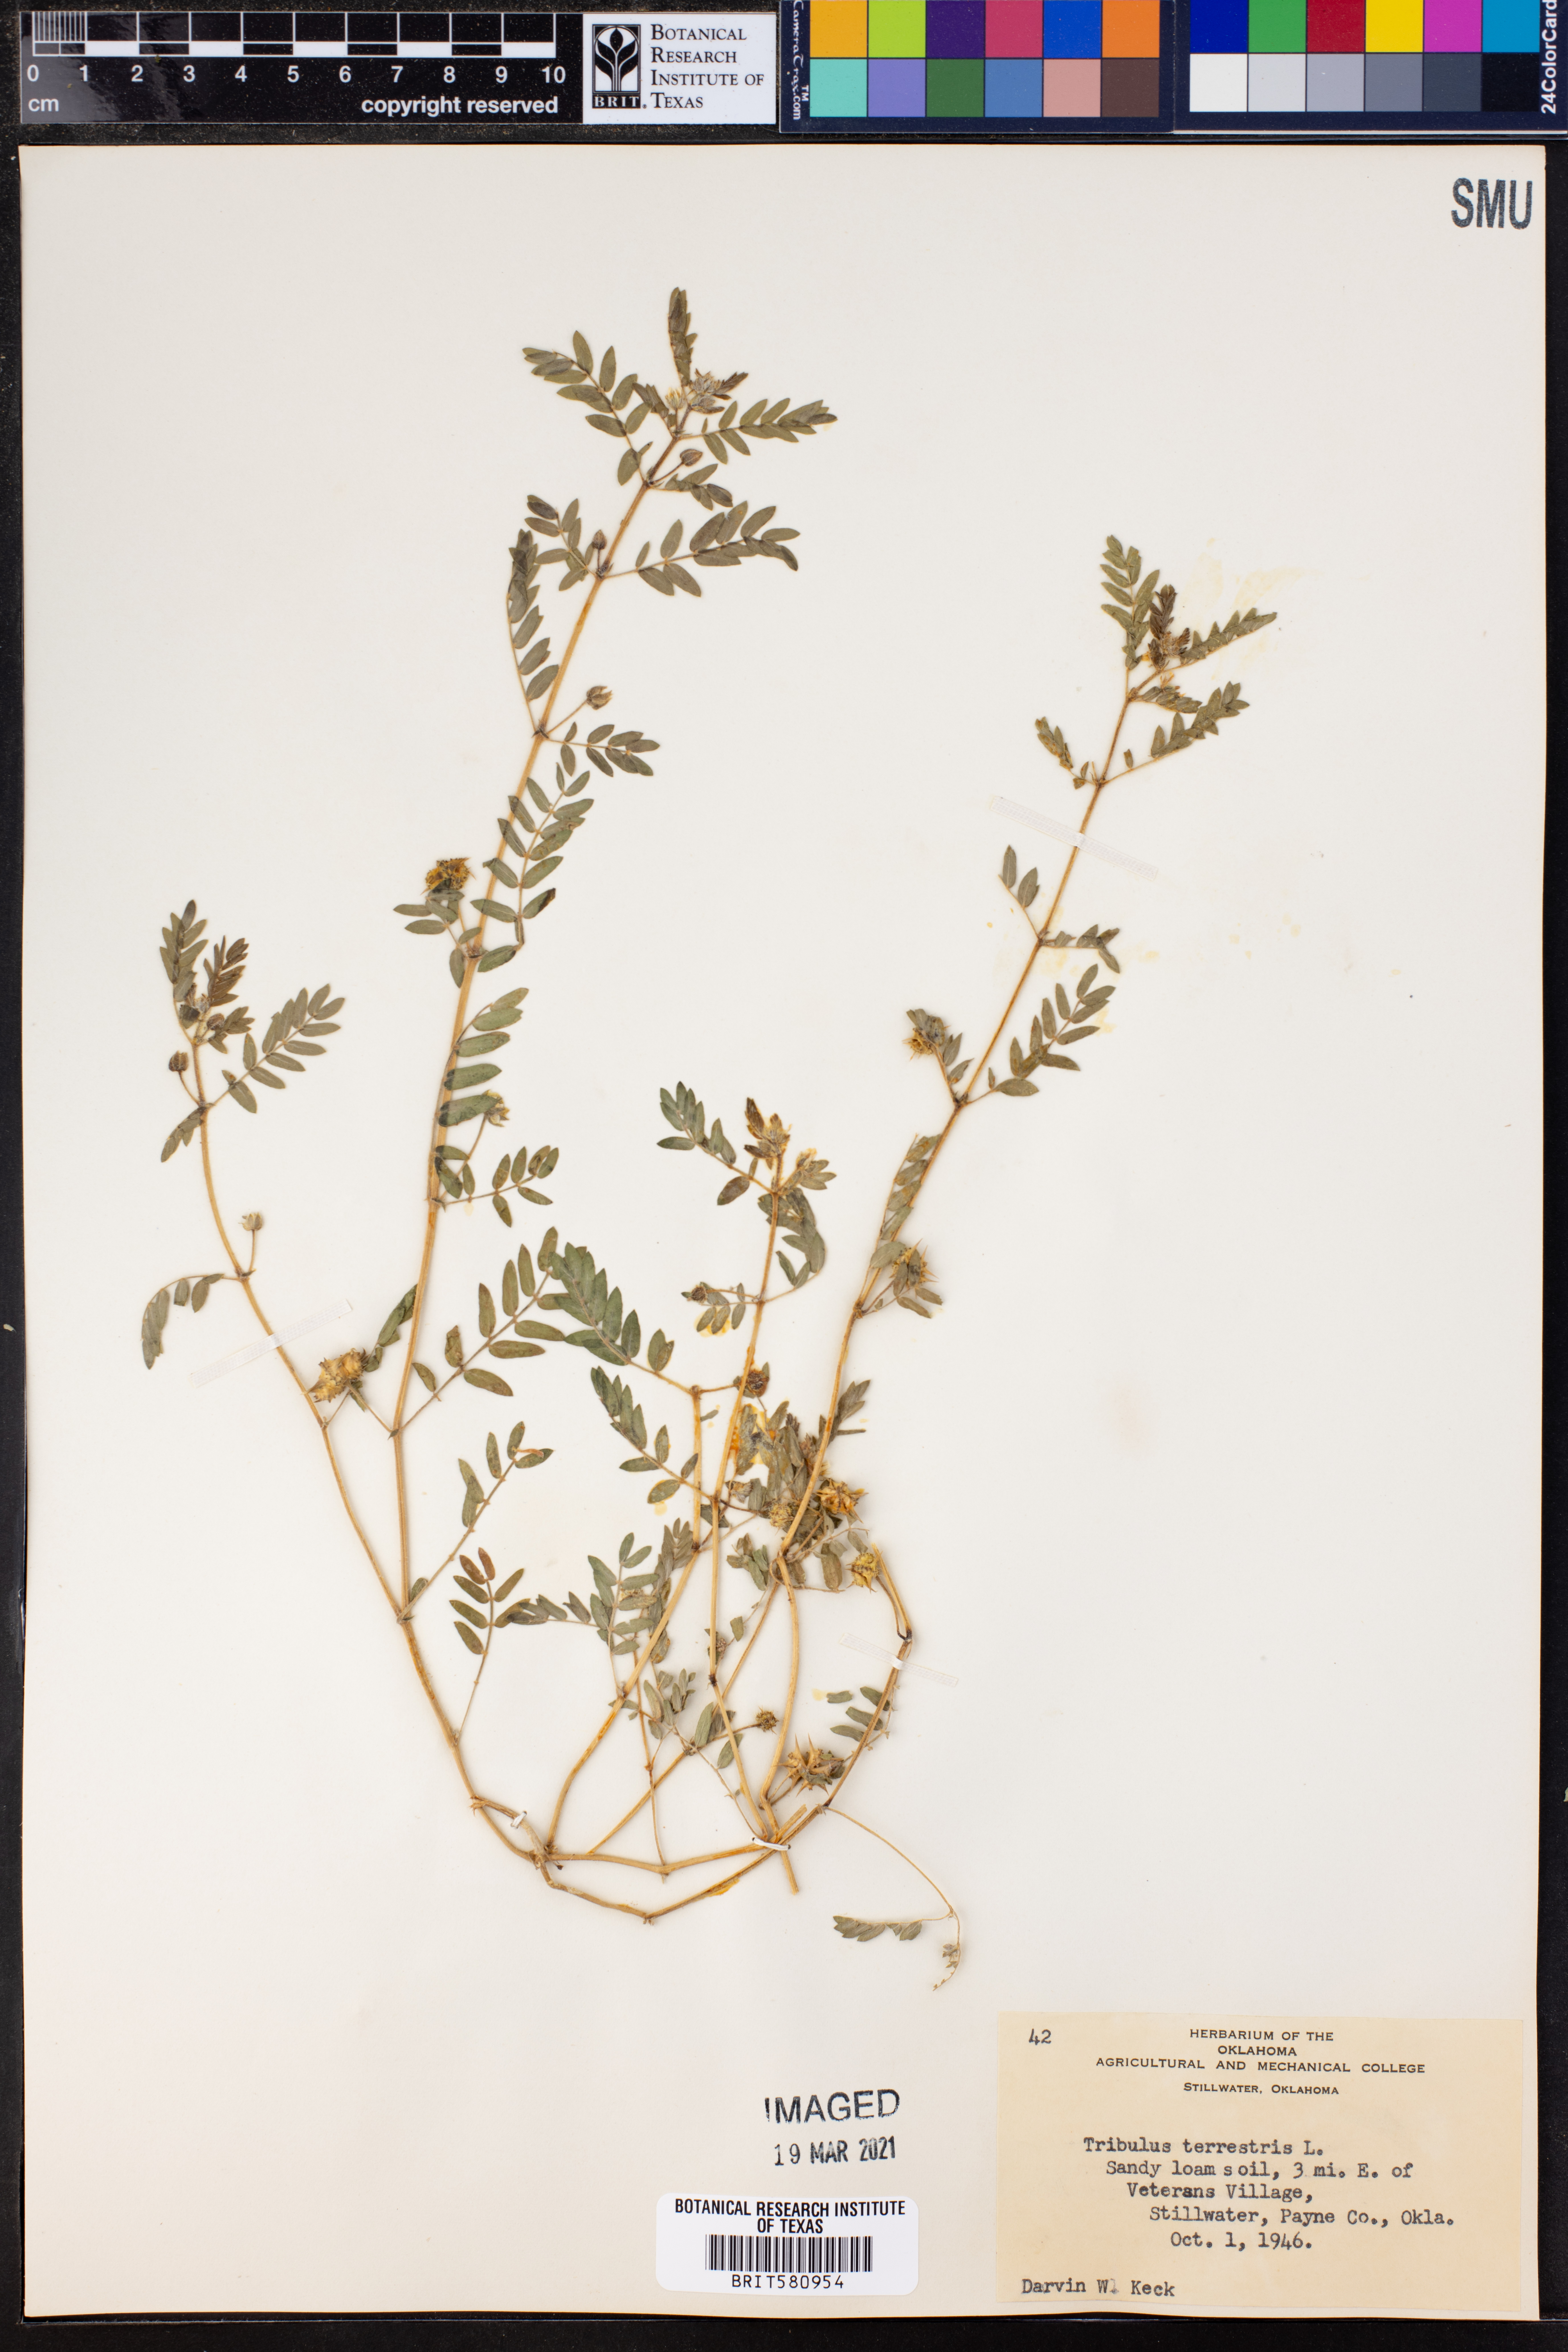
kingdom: Plantae
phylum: Tracheophyta
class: Magnoliopsida
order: Zygophyllales
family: Zygophyllaceae
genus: Tribulus
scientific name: Tribulus terrestris
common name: Puncturevine
